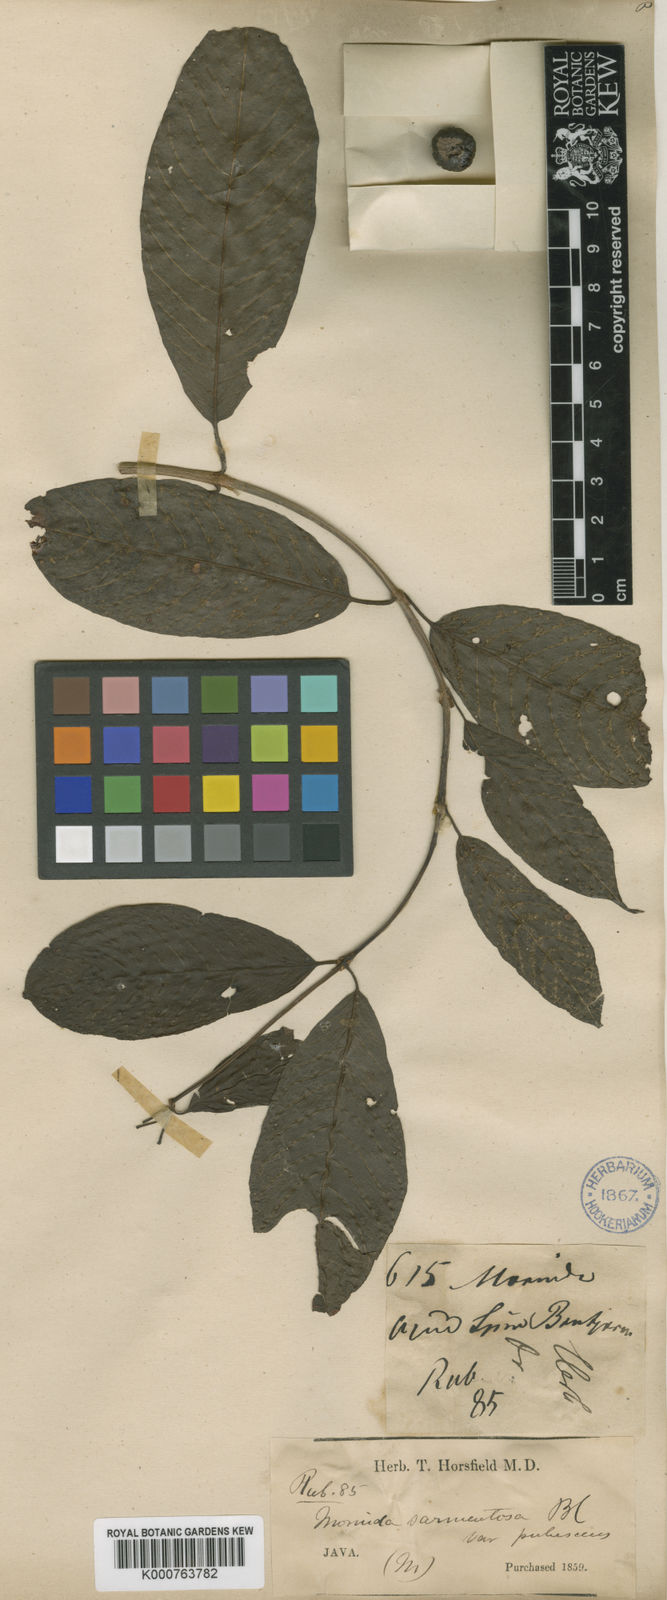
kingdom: Plantae
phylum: Tracheophyta
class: Magnoliopsida
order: Gentianales
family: Rubiaceae
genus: Gynochthodes
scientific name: Gynochthodes sarmentosa
